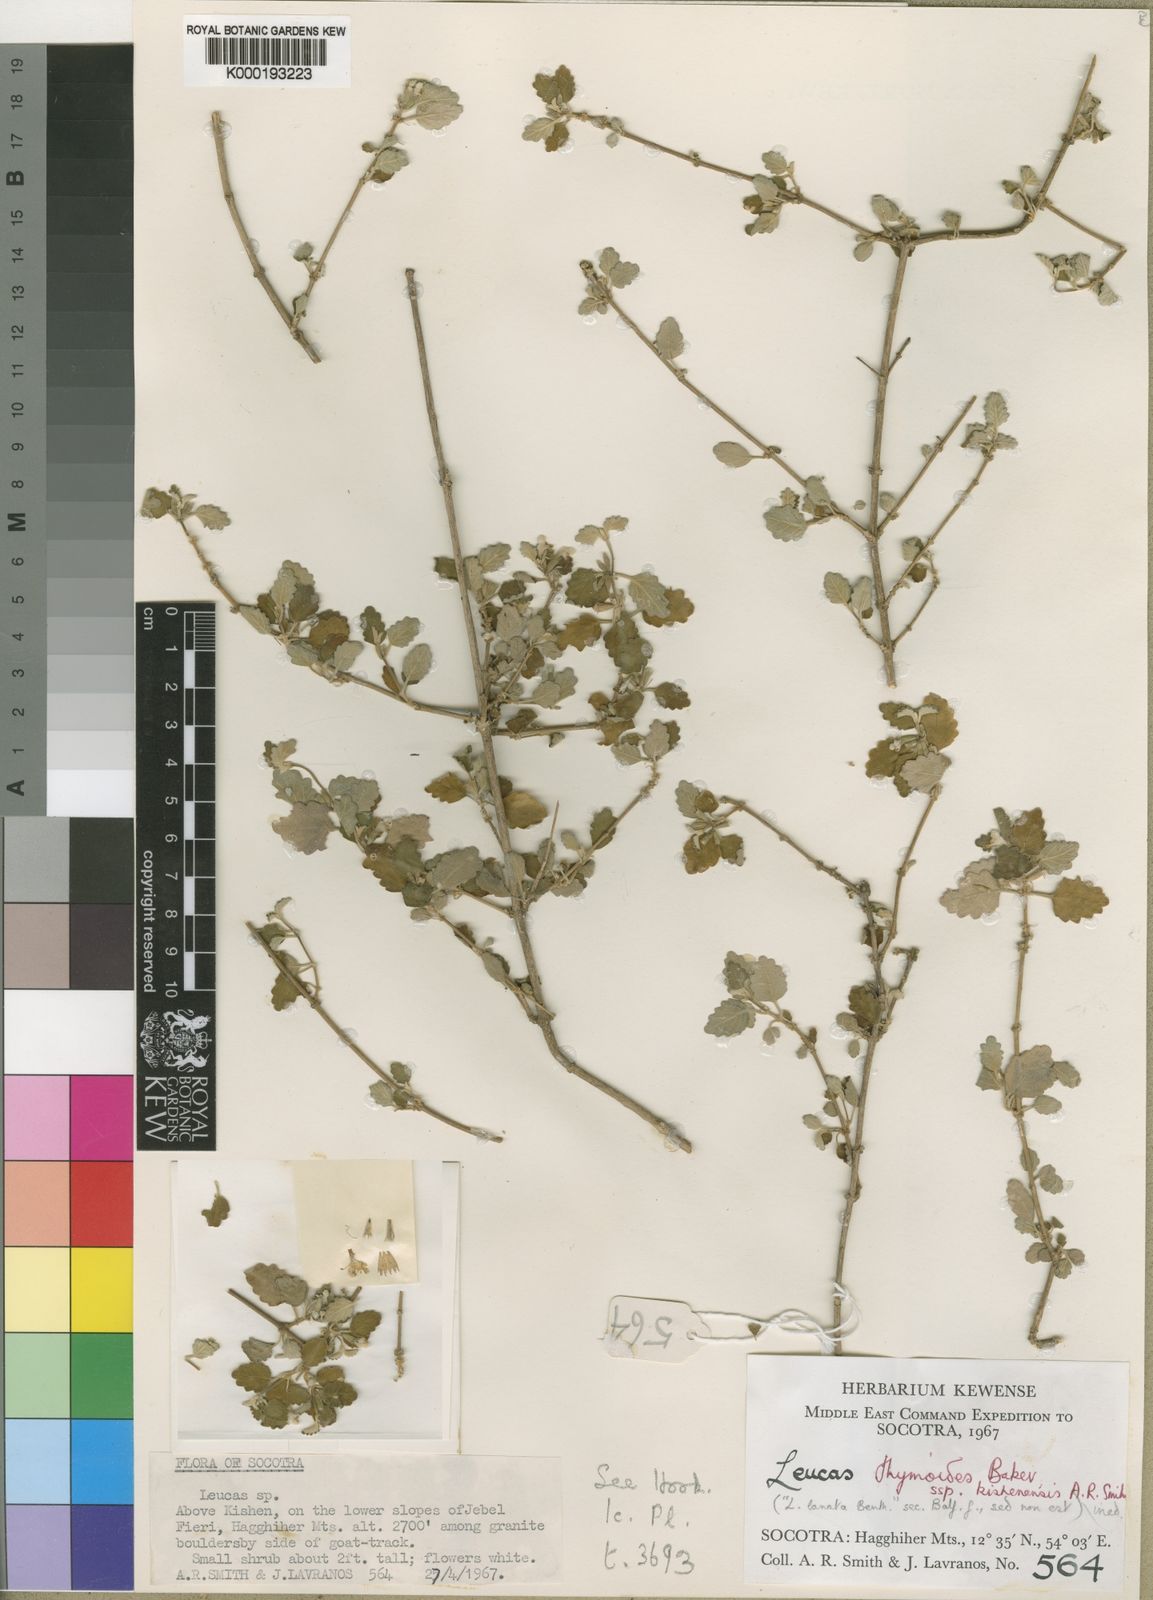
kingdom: Plantae
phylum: Tracheophyta
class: Magnoliopsida
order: Lamiales
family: Lamiaceae
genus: Leucas
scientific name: Leucas kishenensis
